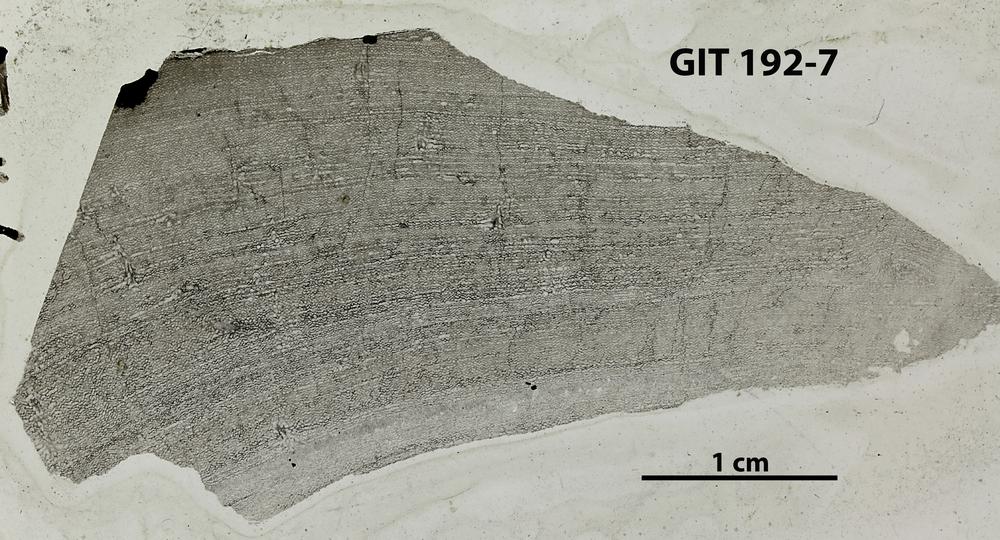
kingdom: Animalia
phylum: Porifera
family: Ecclimadictyidae
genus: Ecclimadictyon
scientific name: Ecclimadictyon macrotuberculatum
